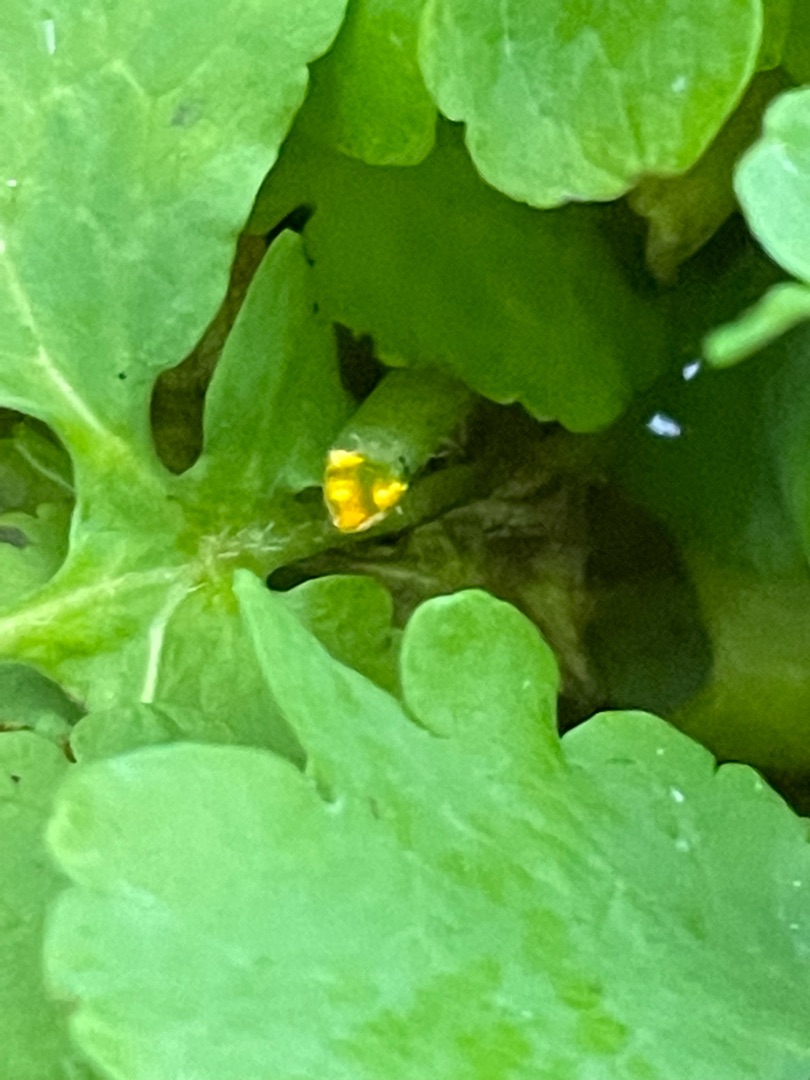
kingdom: Plantae
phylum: Tracheophyta
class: Magnoliopsida
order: Ranunculales
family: Papaveraceae
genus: Chelidonium
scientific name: Chelidonium majus
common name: Svaleurt
